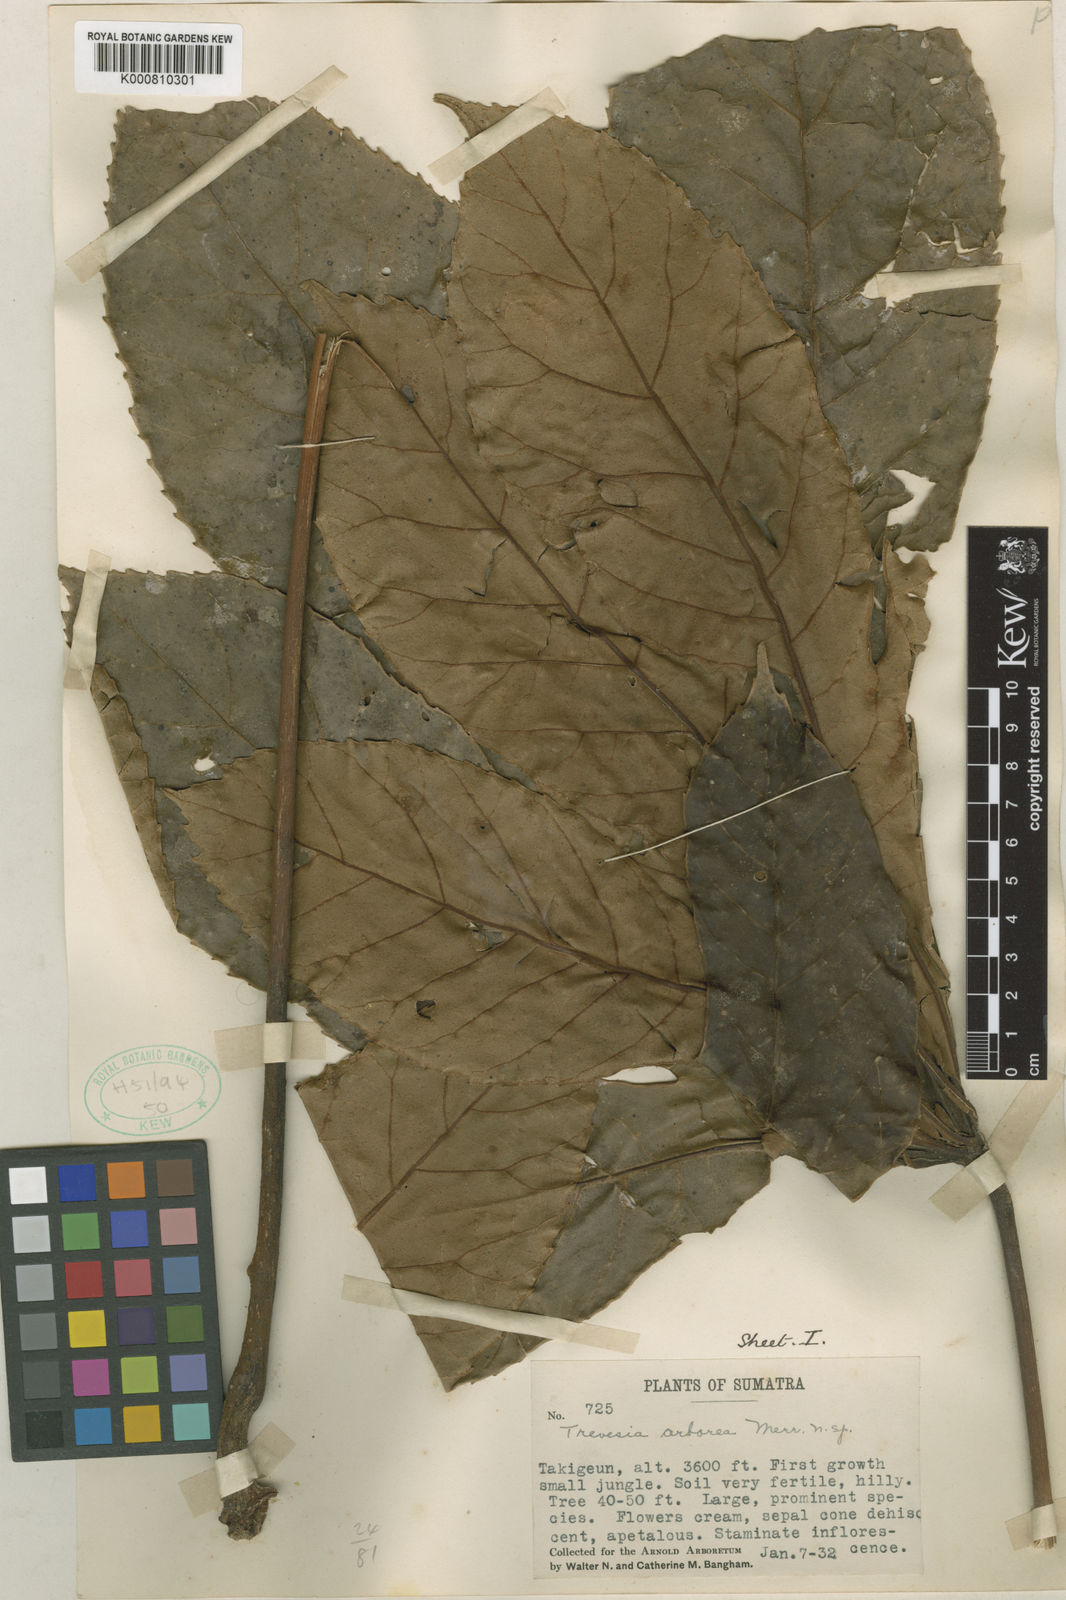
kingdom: Plantae
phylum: Tracheophyta
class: Magnoliopsida
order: Apiales
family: Araliaceae
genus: Trevesia
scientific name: Trevesia arborea
